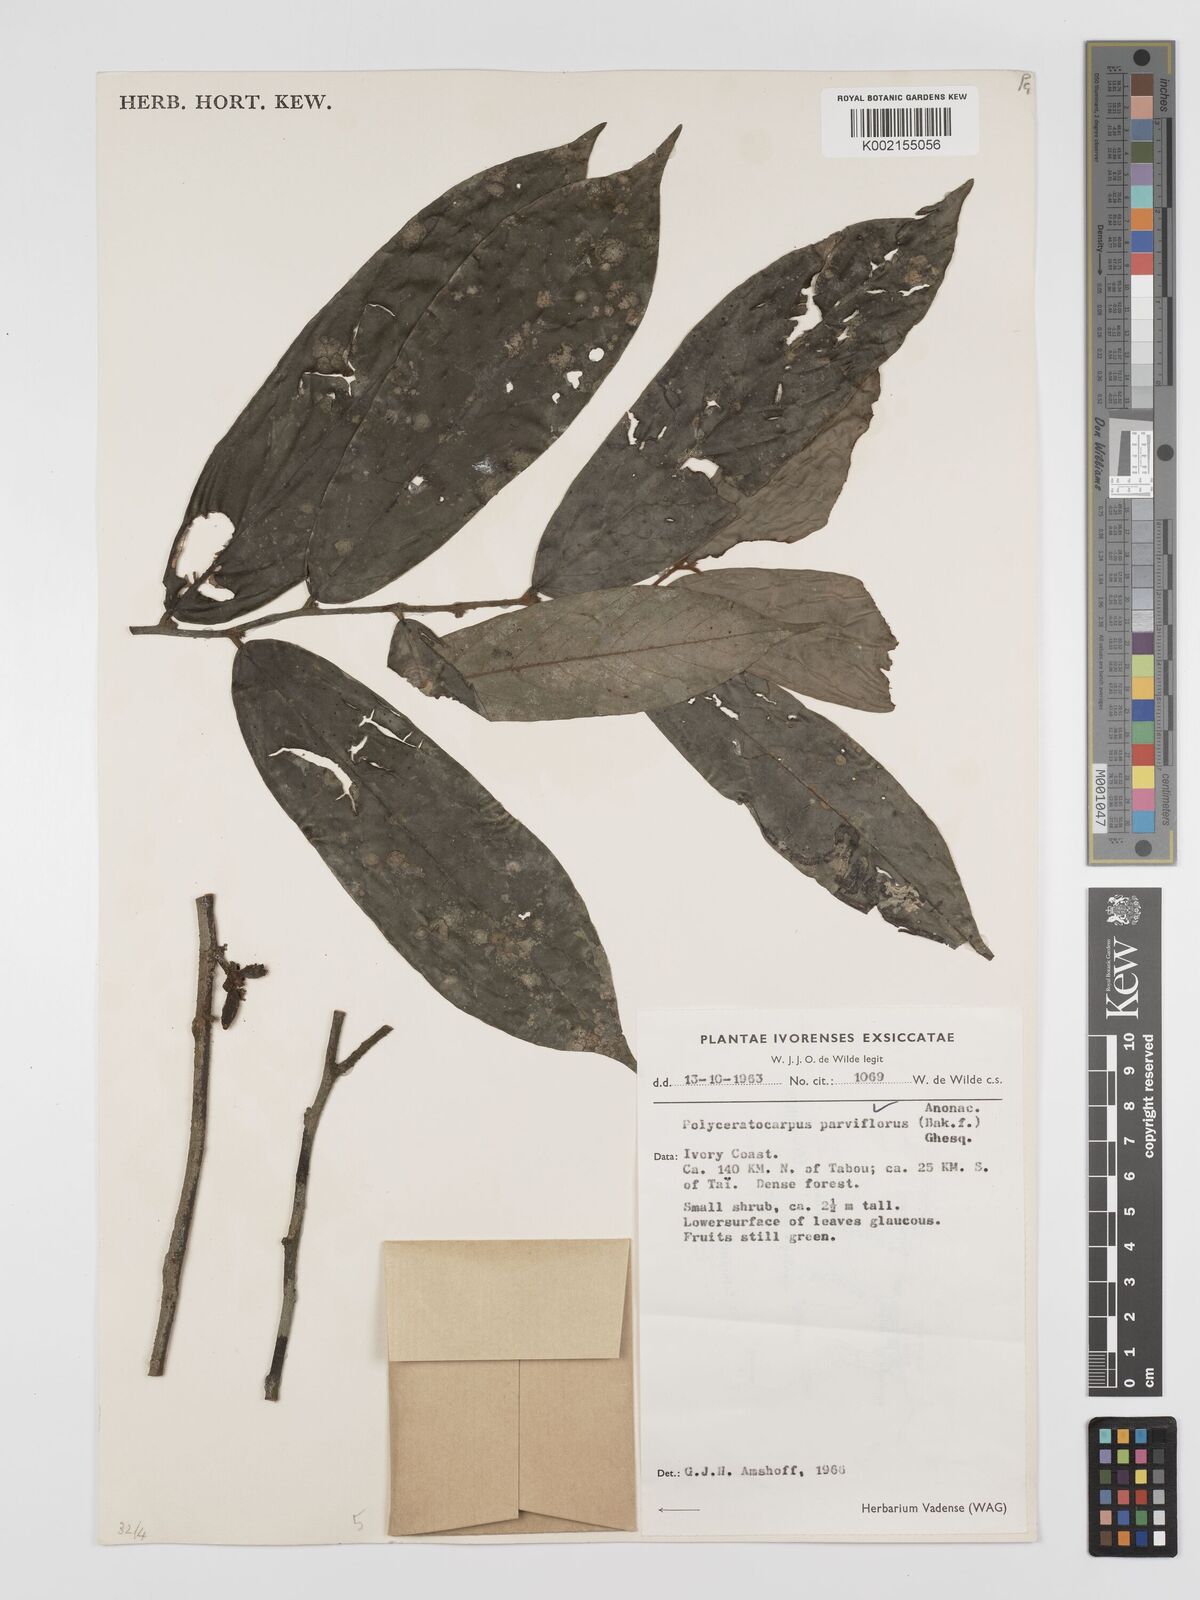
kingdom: Plantae
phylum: Tracheophyta
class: Magnoliopsida
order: Magnoliales
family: Annonaceae
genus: Polyceratocarpus
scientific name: Polyceratocarpus parviflorus
